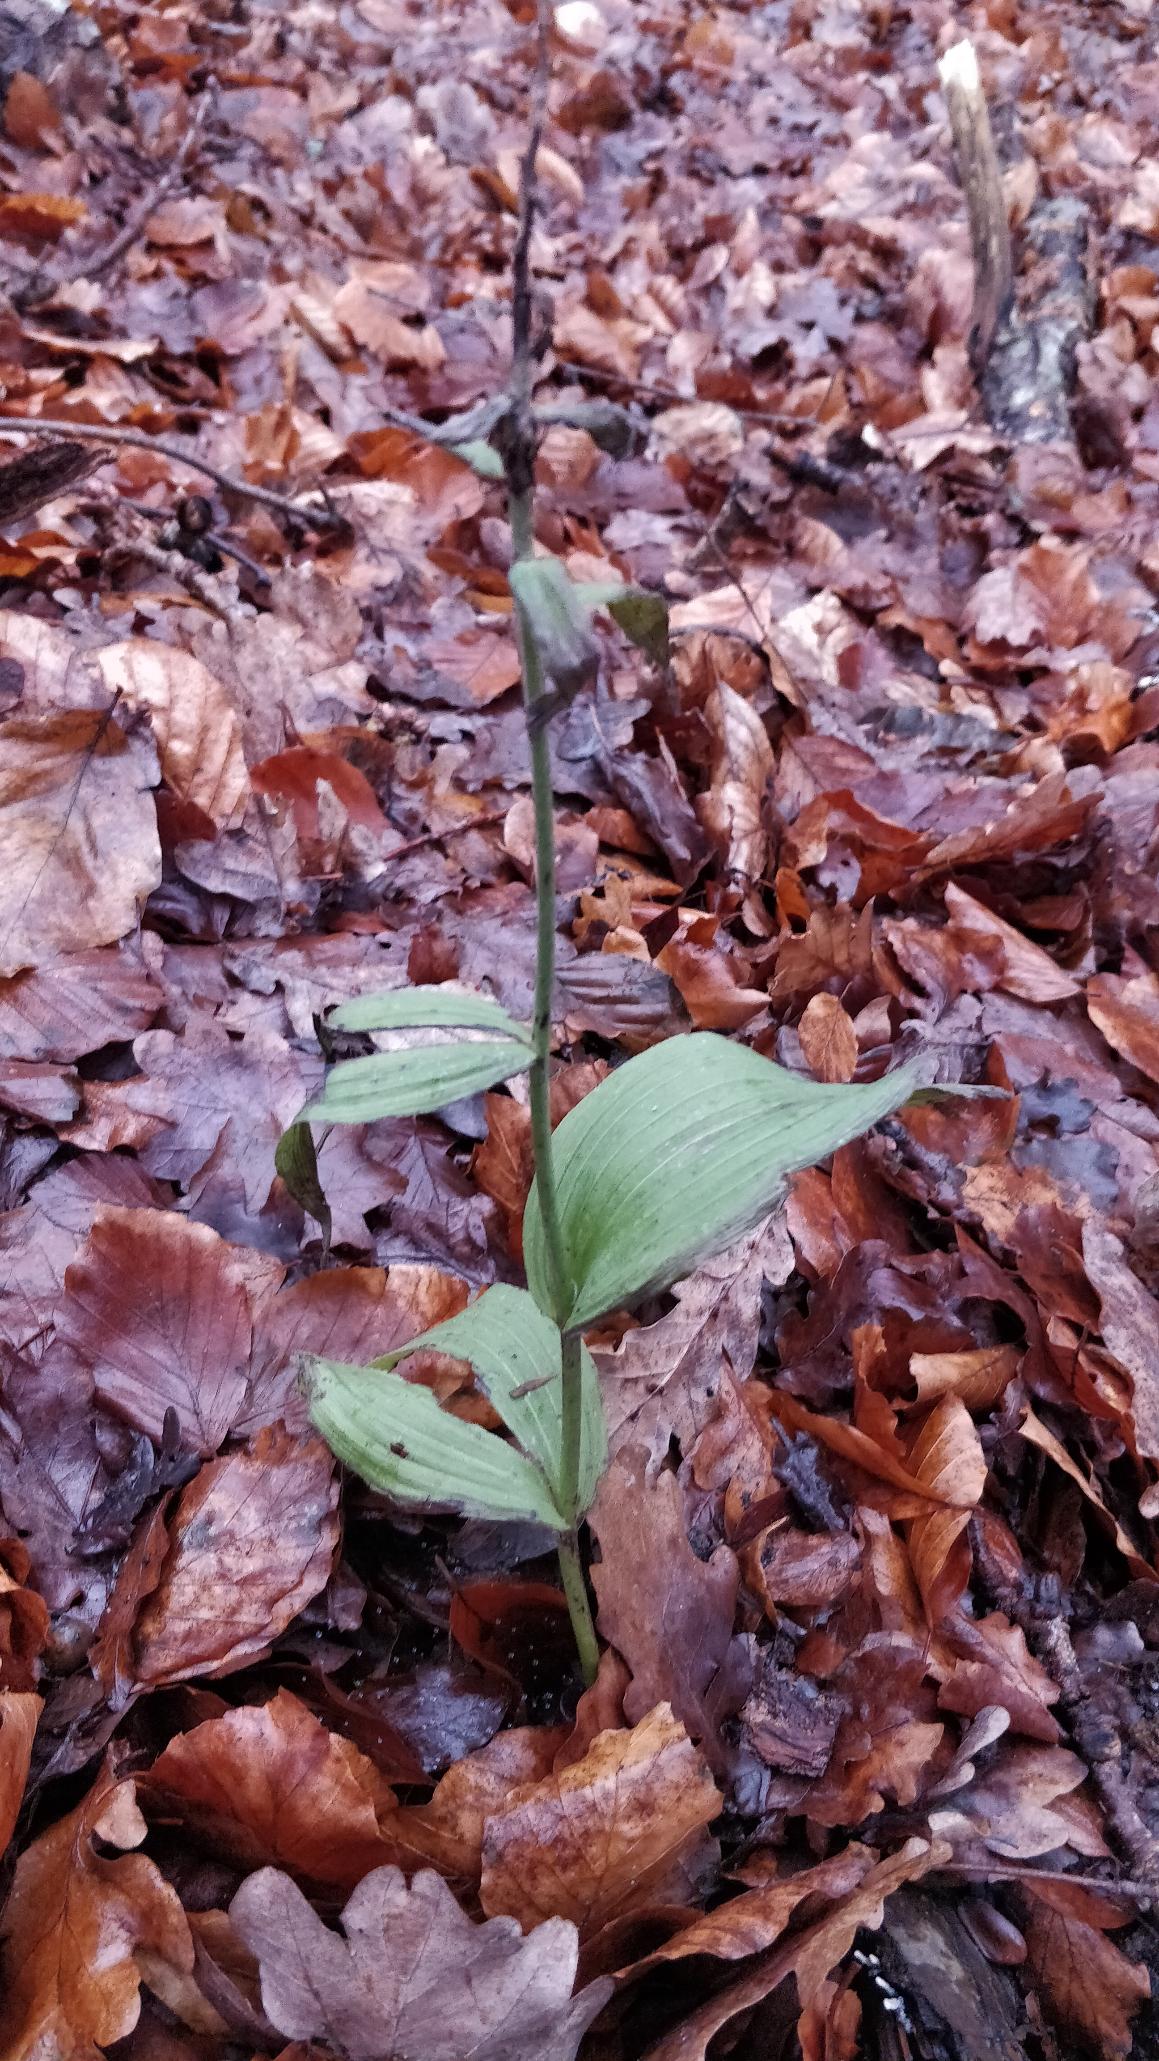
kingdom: Plantae
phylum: Tracheophyta
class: Liliopsida
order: Asparagales
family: Orchidaceae
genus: Epipactis
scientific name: Epipactis helleborine
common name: Skov-hullæbe
